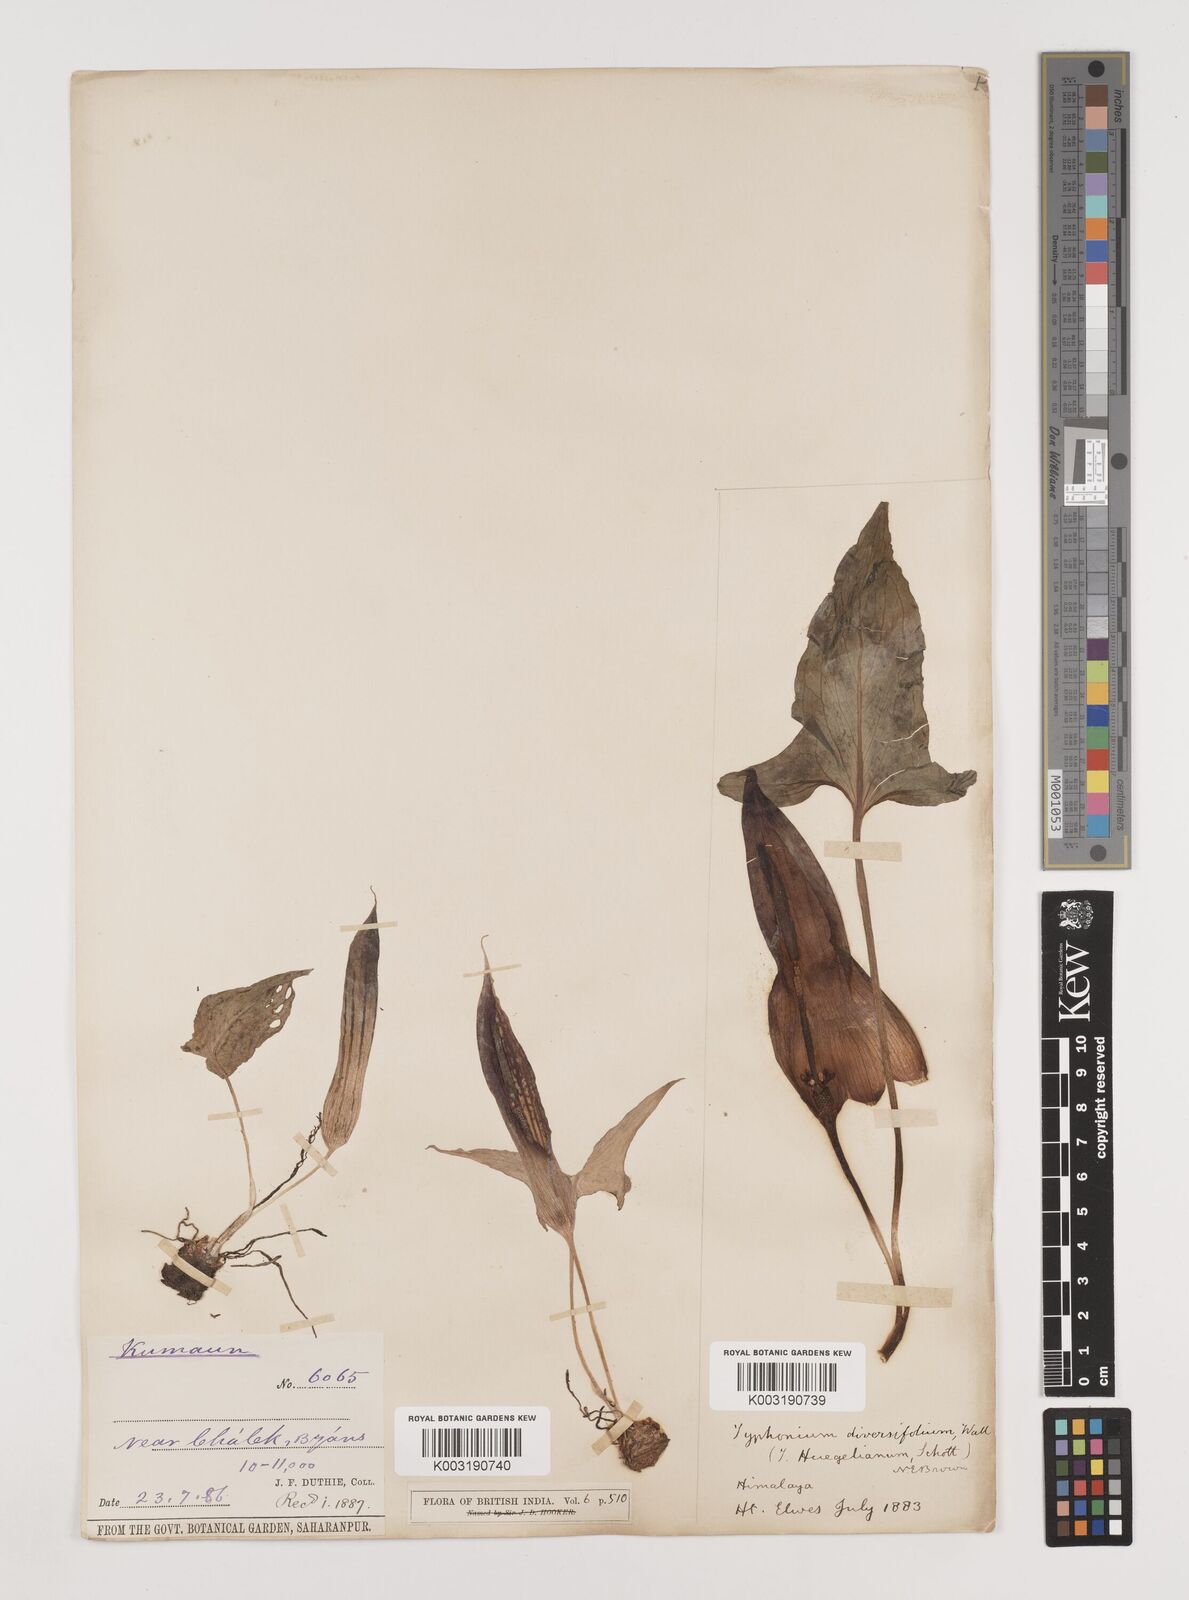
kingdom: Plantae
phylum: Tracheophyta
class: Liliopsida
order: Alismatales
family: Araceae
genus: Sauromatum
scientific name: Sauromatum diversifolium
